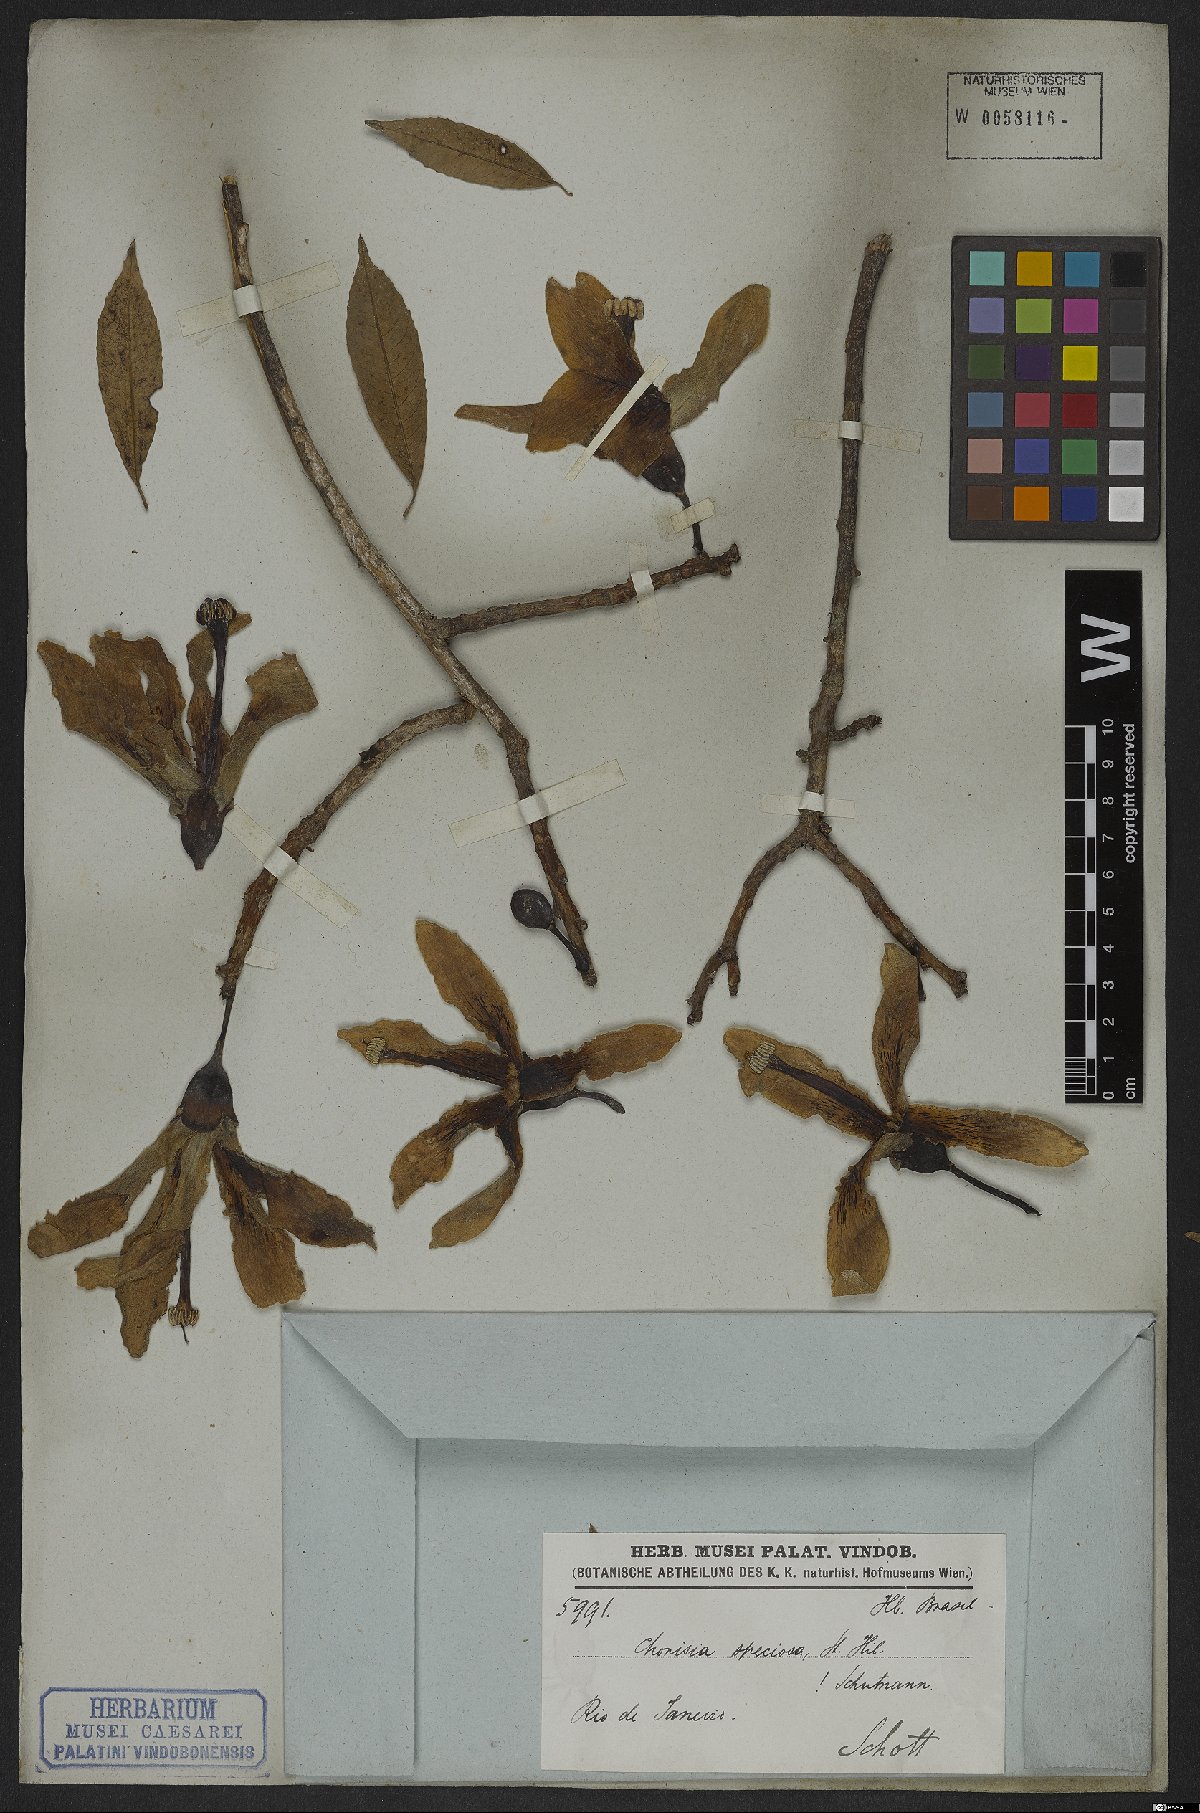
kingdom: Plantae
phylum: Tracheophyta
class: Magnoliopsida
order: Malvales
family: Malvaceae
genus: Ceiba
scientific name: Ceiba speciosa
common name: Silk-floss tree
